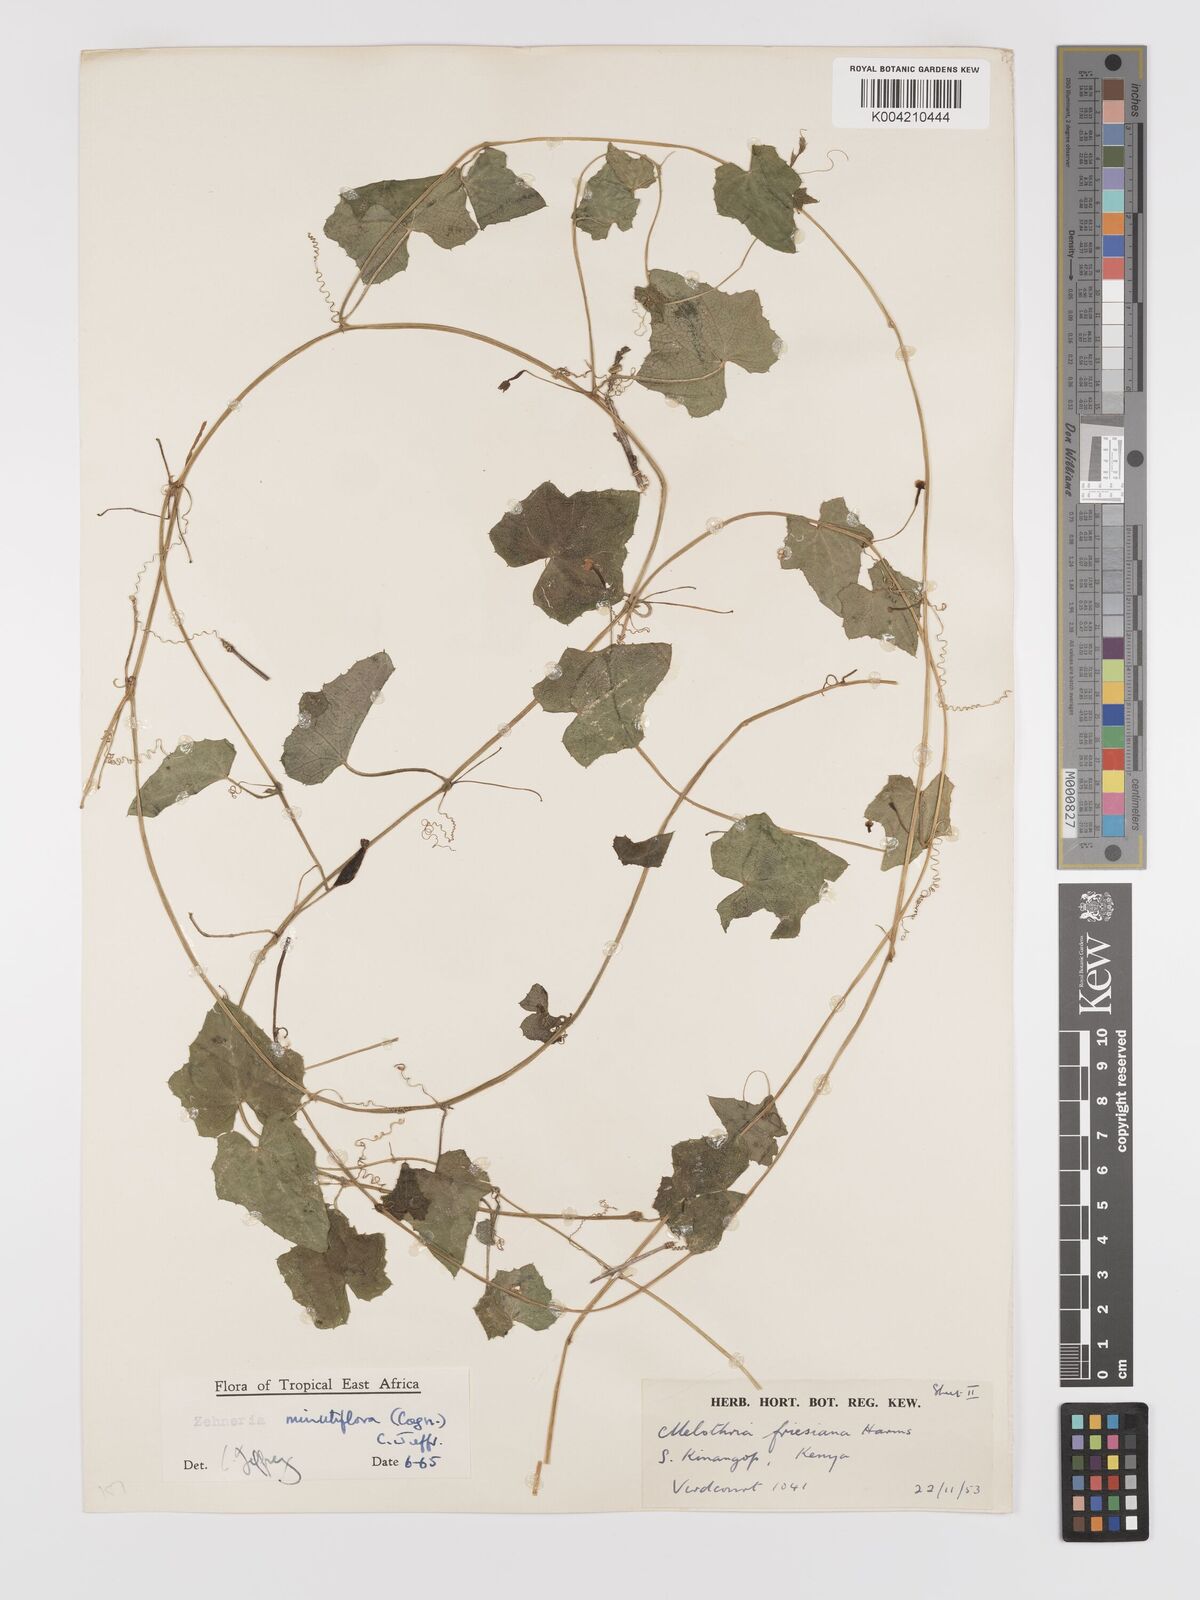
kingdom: Plantae
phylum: Tracheophyta
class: Magnoliopsida
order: Cucurbitales
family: Cucurbitaceae
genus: Zehneria
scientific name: Zehneria minutiflora
